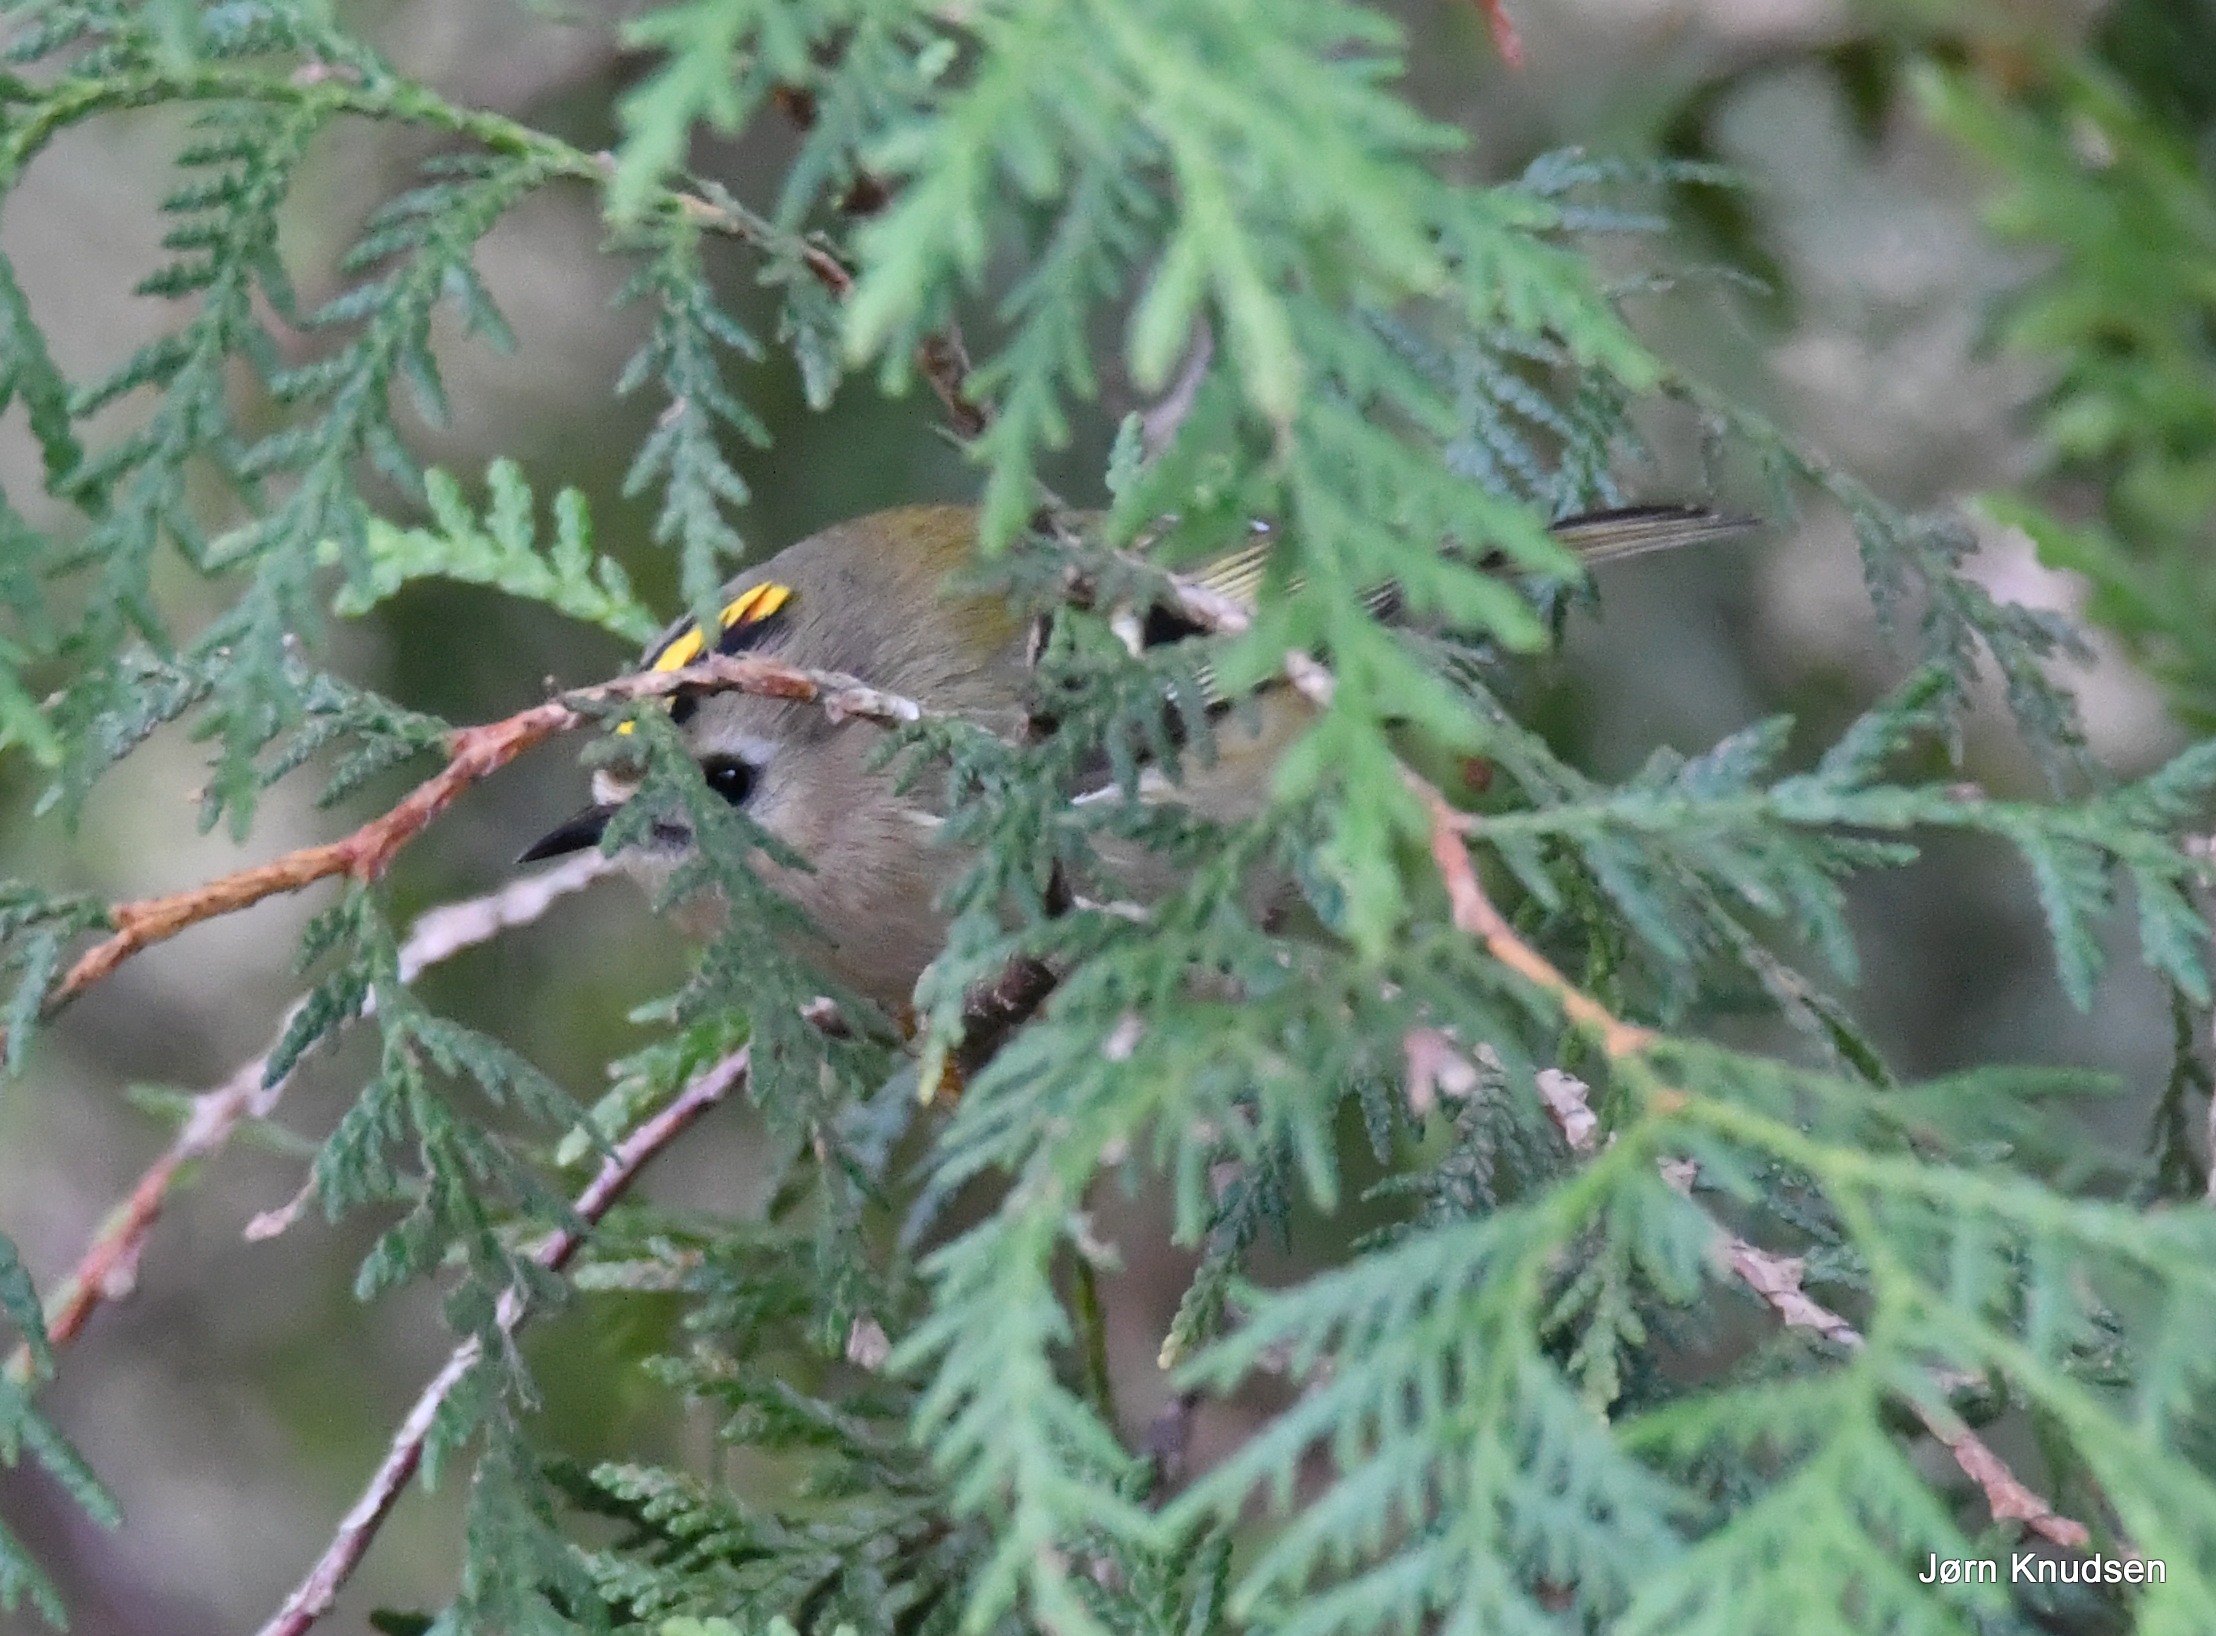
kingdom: Animalia
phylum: Chordata
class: Aves
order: Passeriformes
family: Regulidae
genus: Regulus
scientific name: Regulus regulus
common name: Fuglekonge
